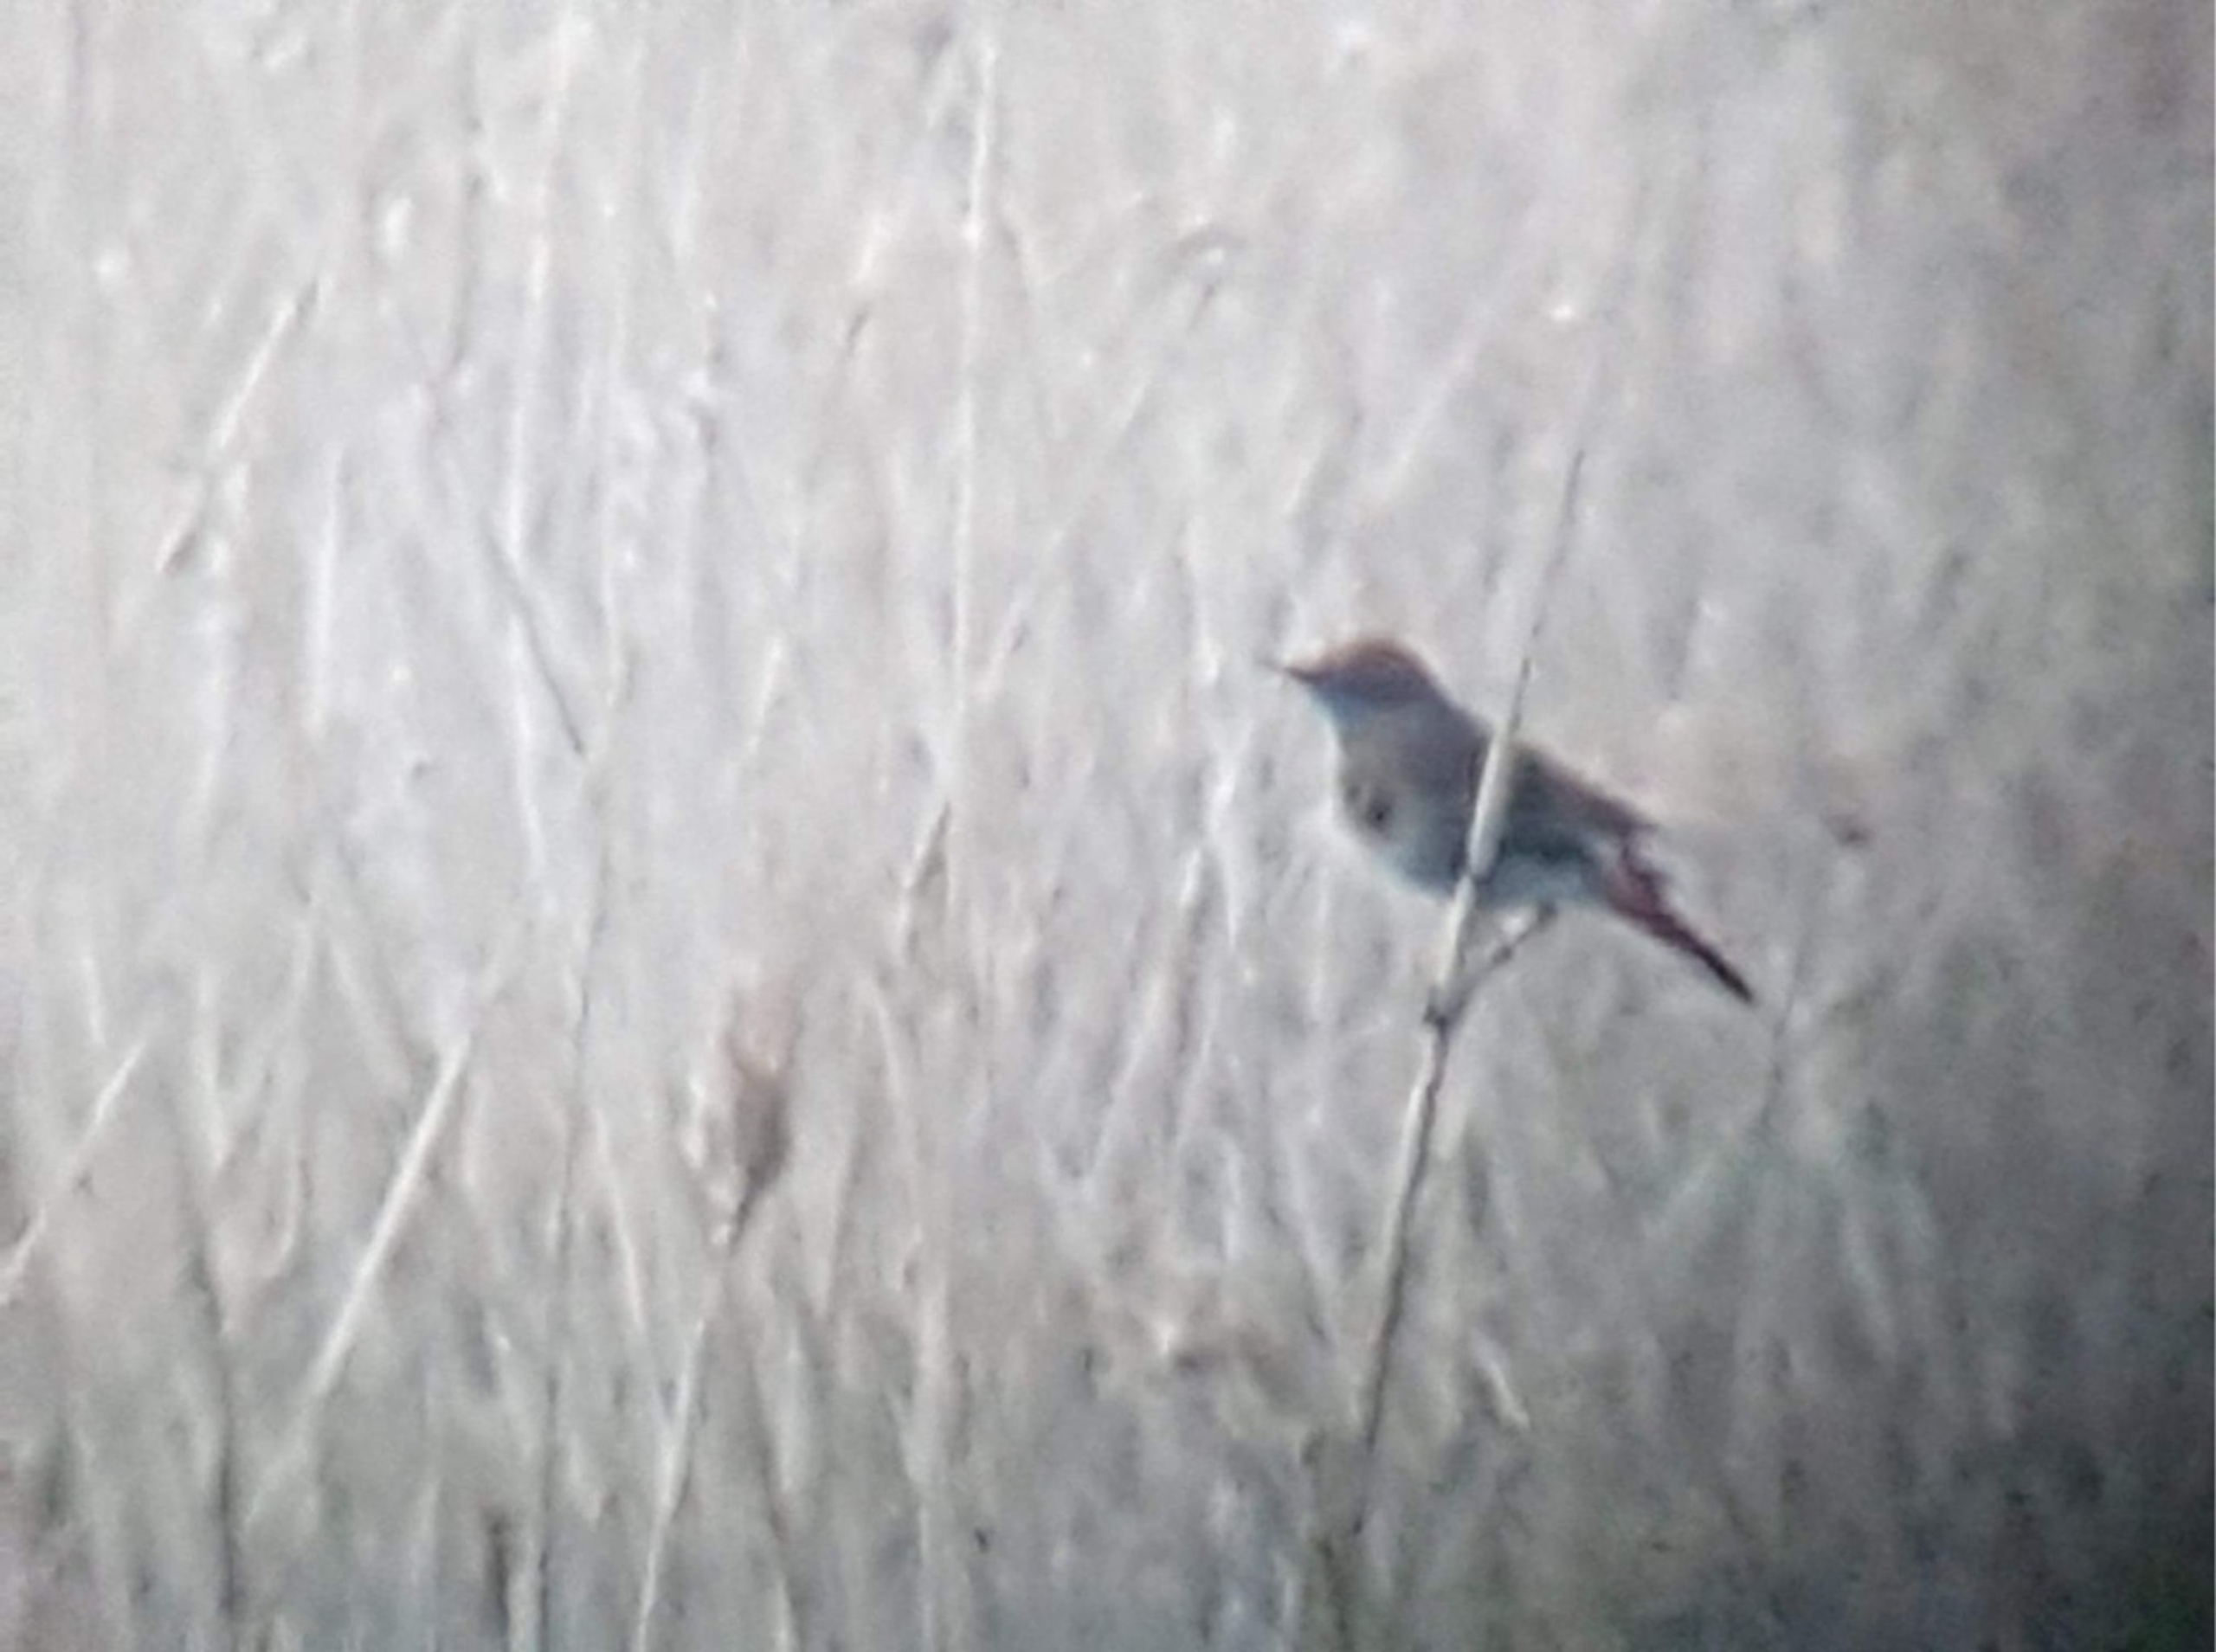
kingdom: Animalia
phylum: Chordata
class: Aves
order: Passeriformes
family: Muscicapidae
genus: Luscinia
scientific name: Luscinia svecica
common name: Blåhals
